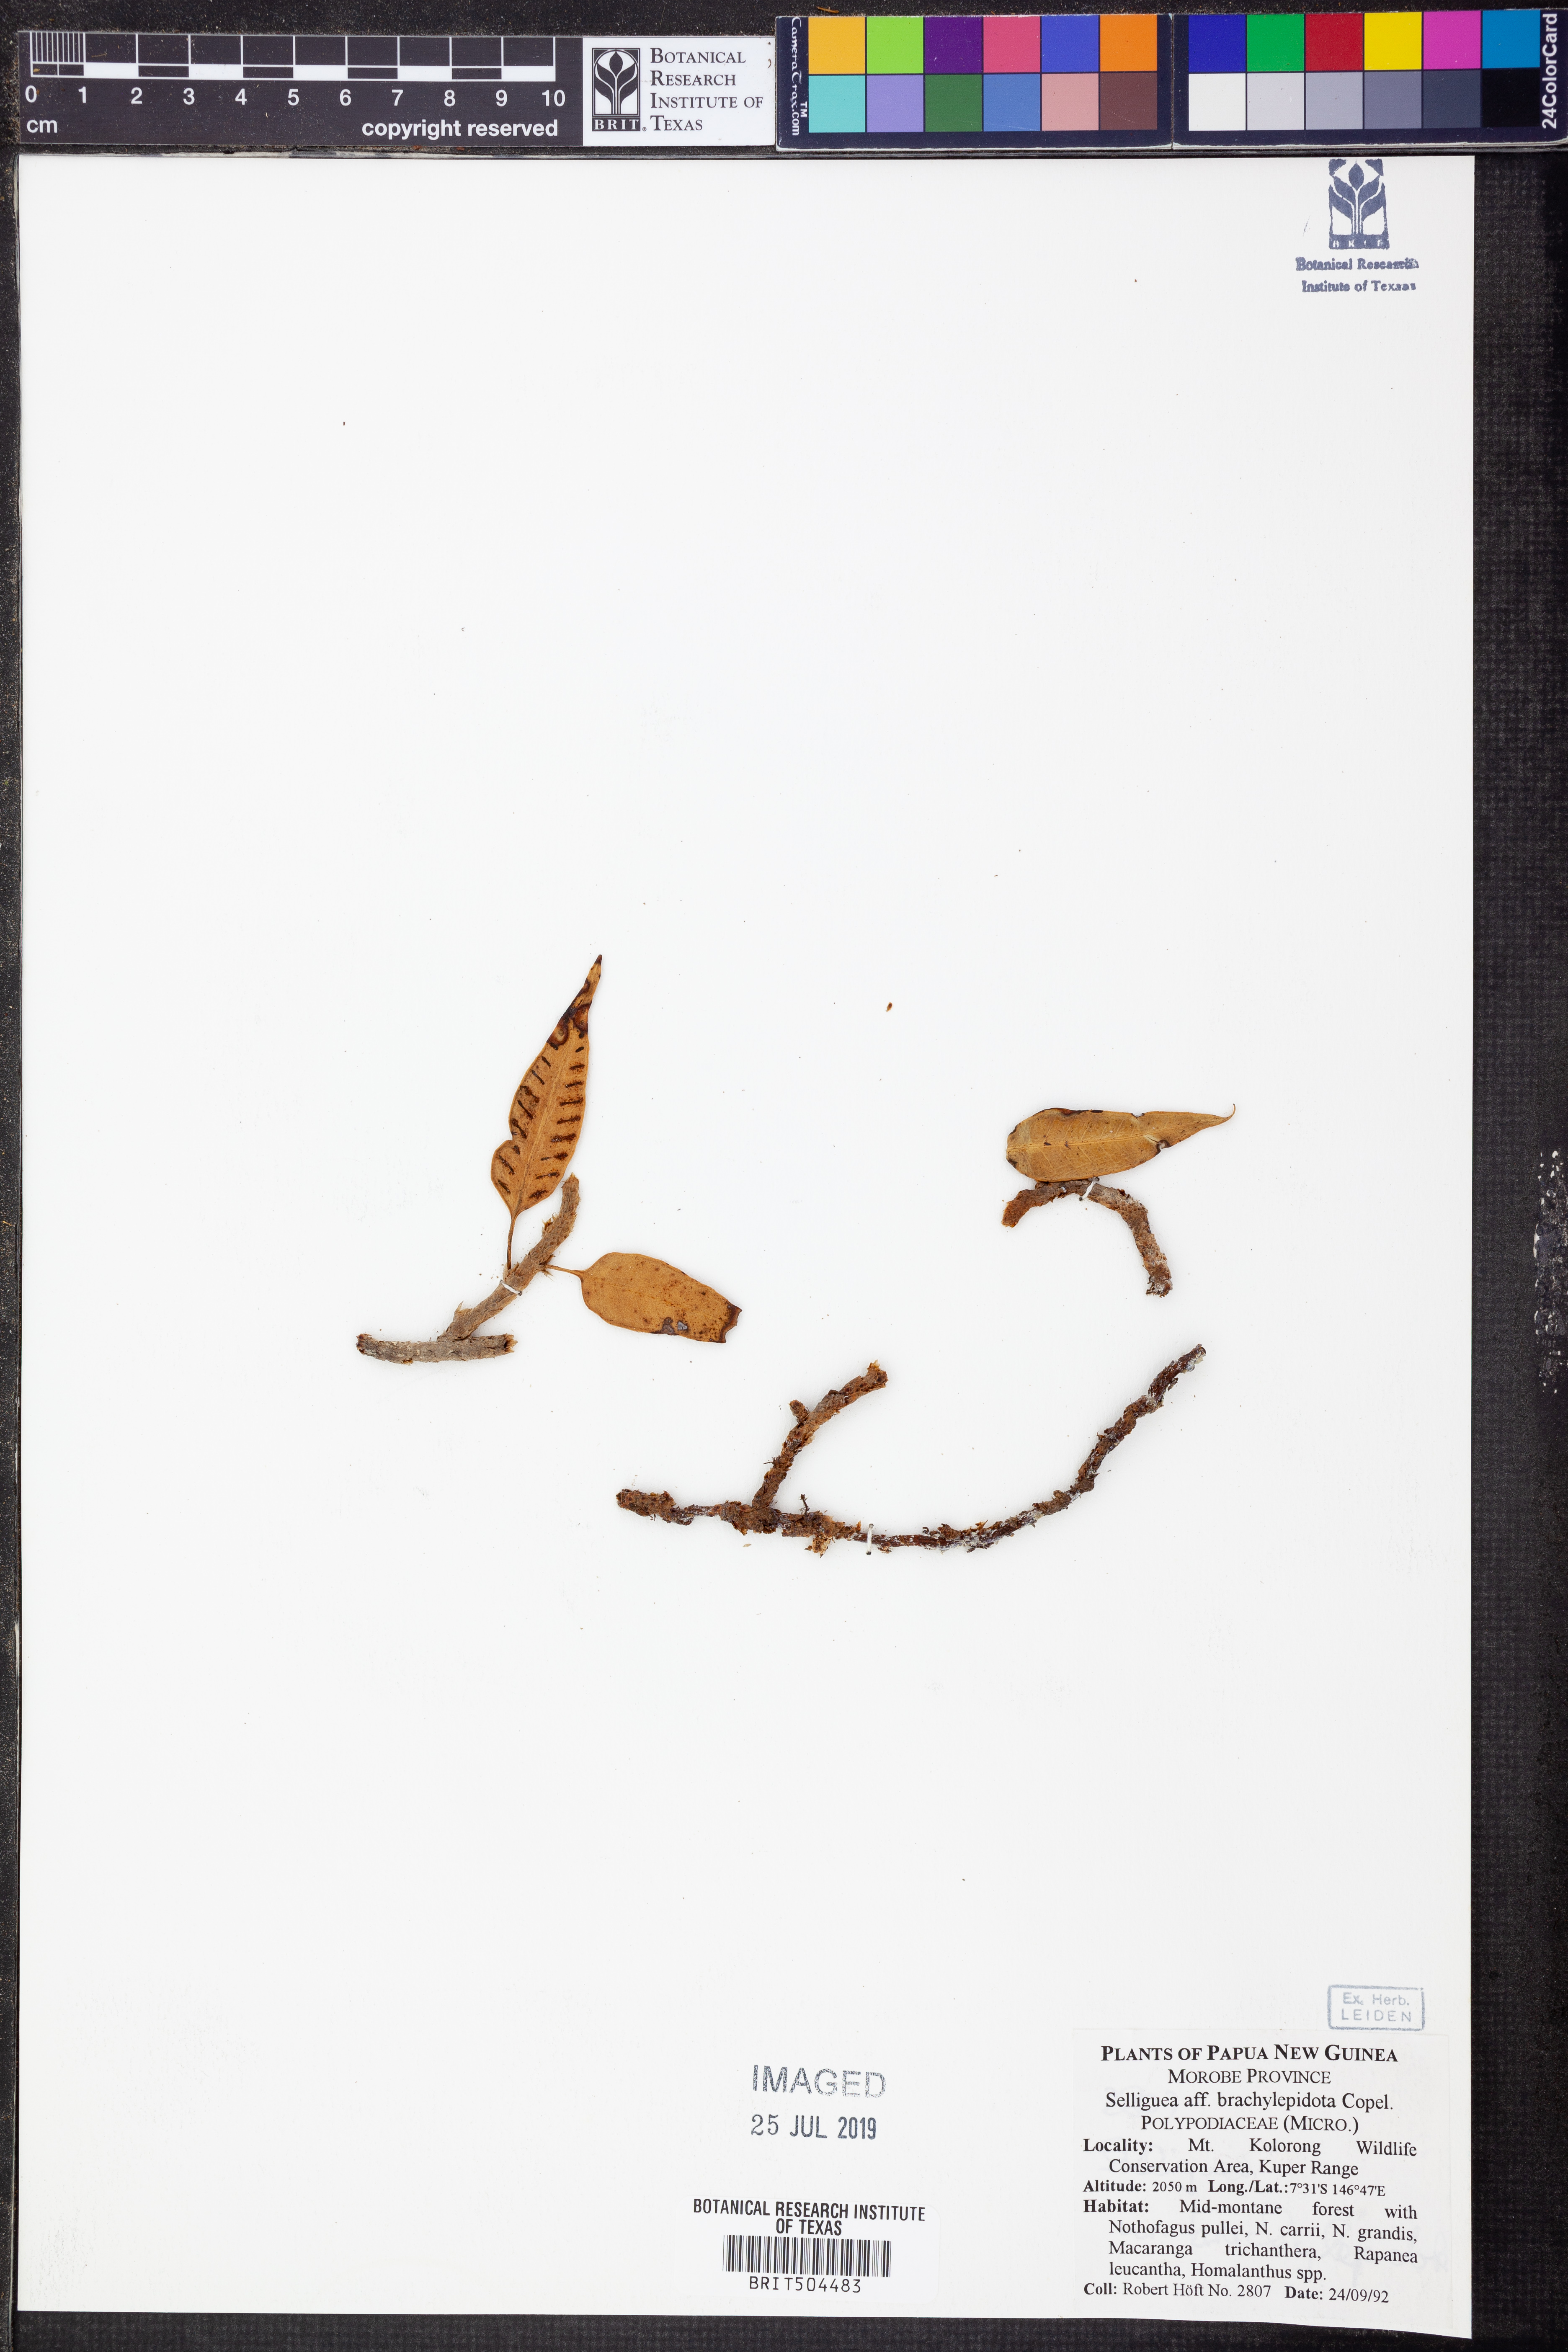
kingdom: Plantae
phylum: Tracheophyta
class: Polypodiopsida
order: Polypodiales
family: Polypodiaceae
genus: Selliguea
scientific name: Selliguea bellisquamata
